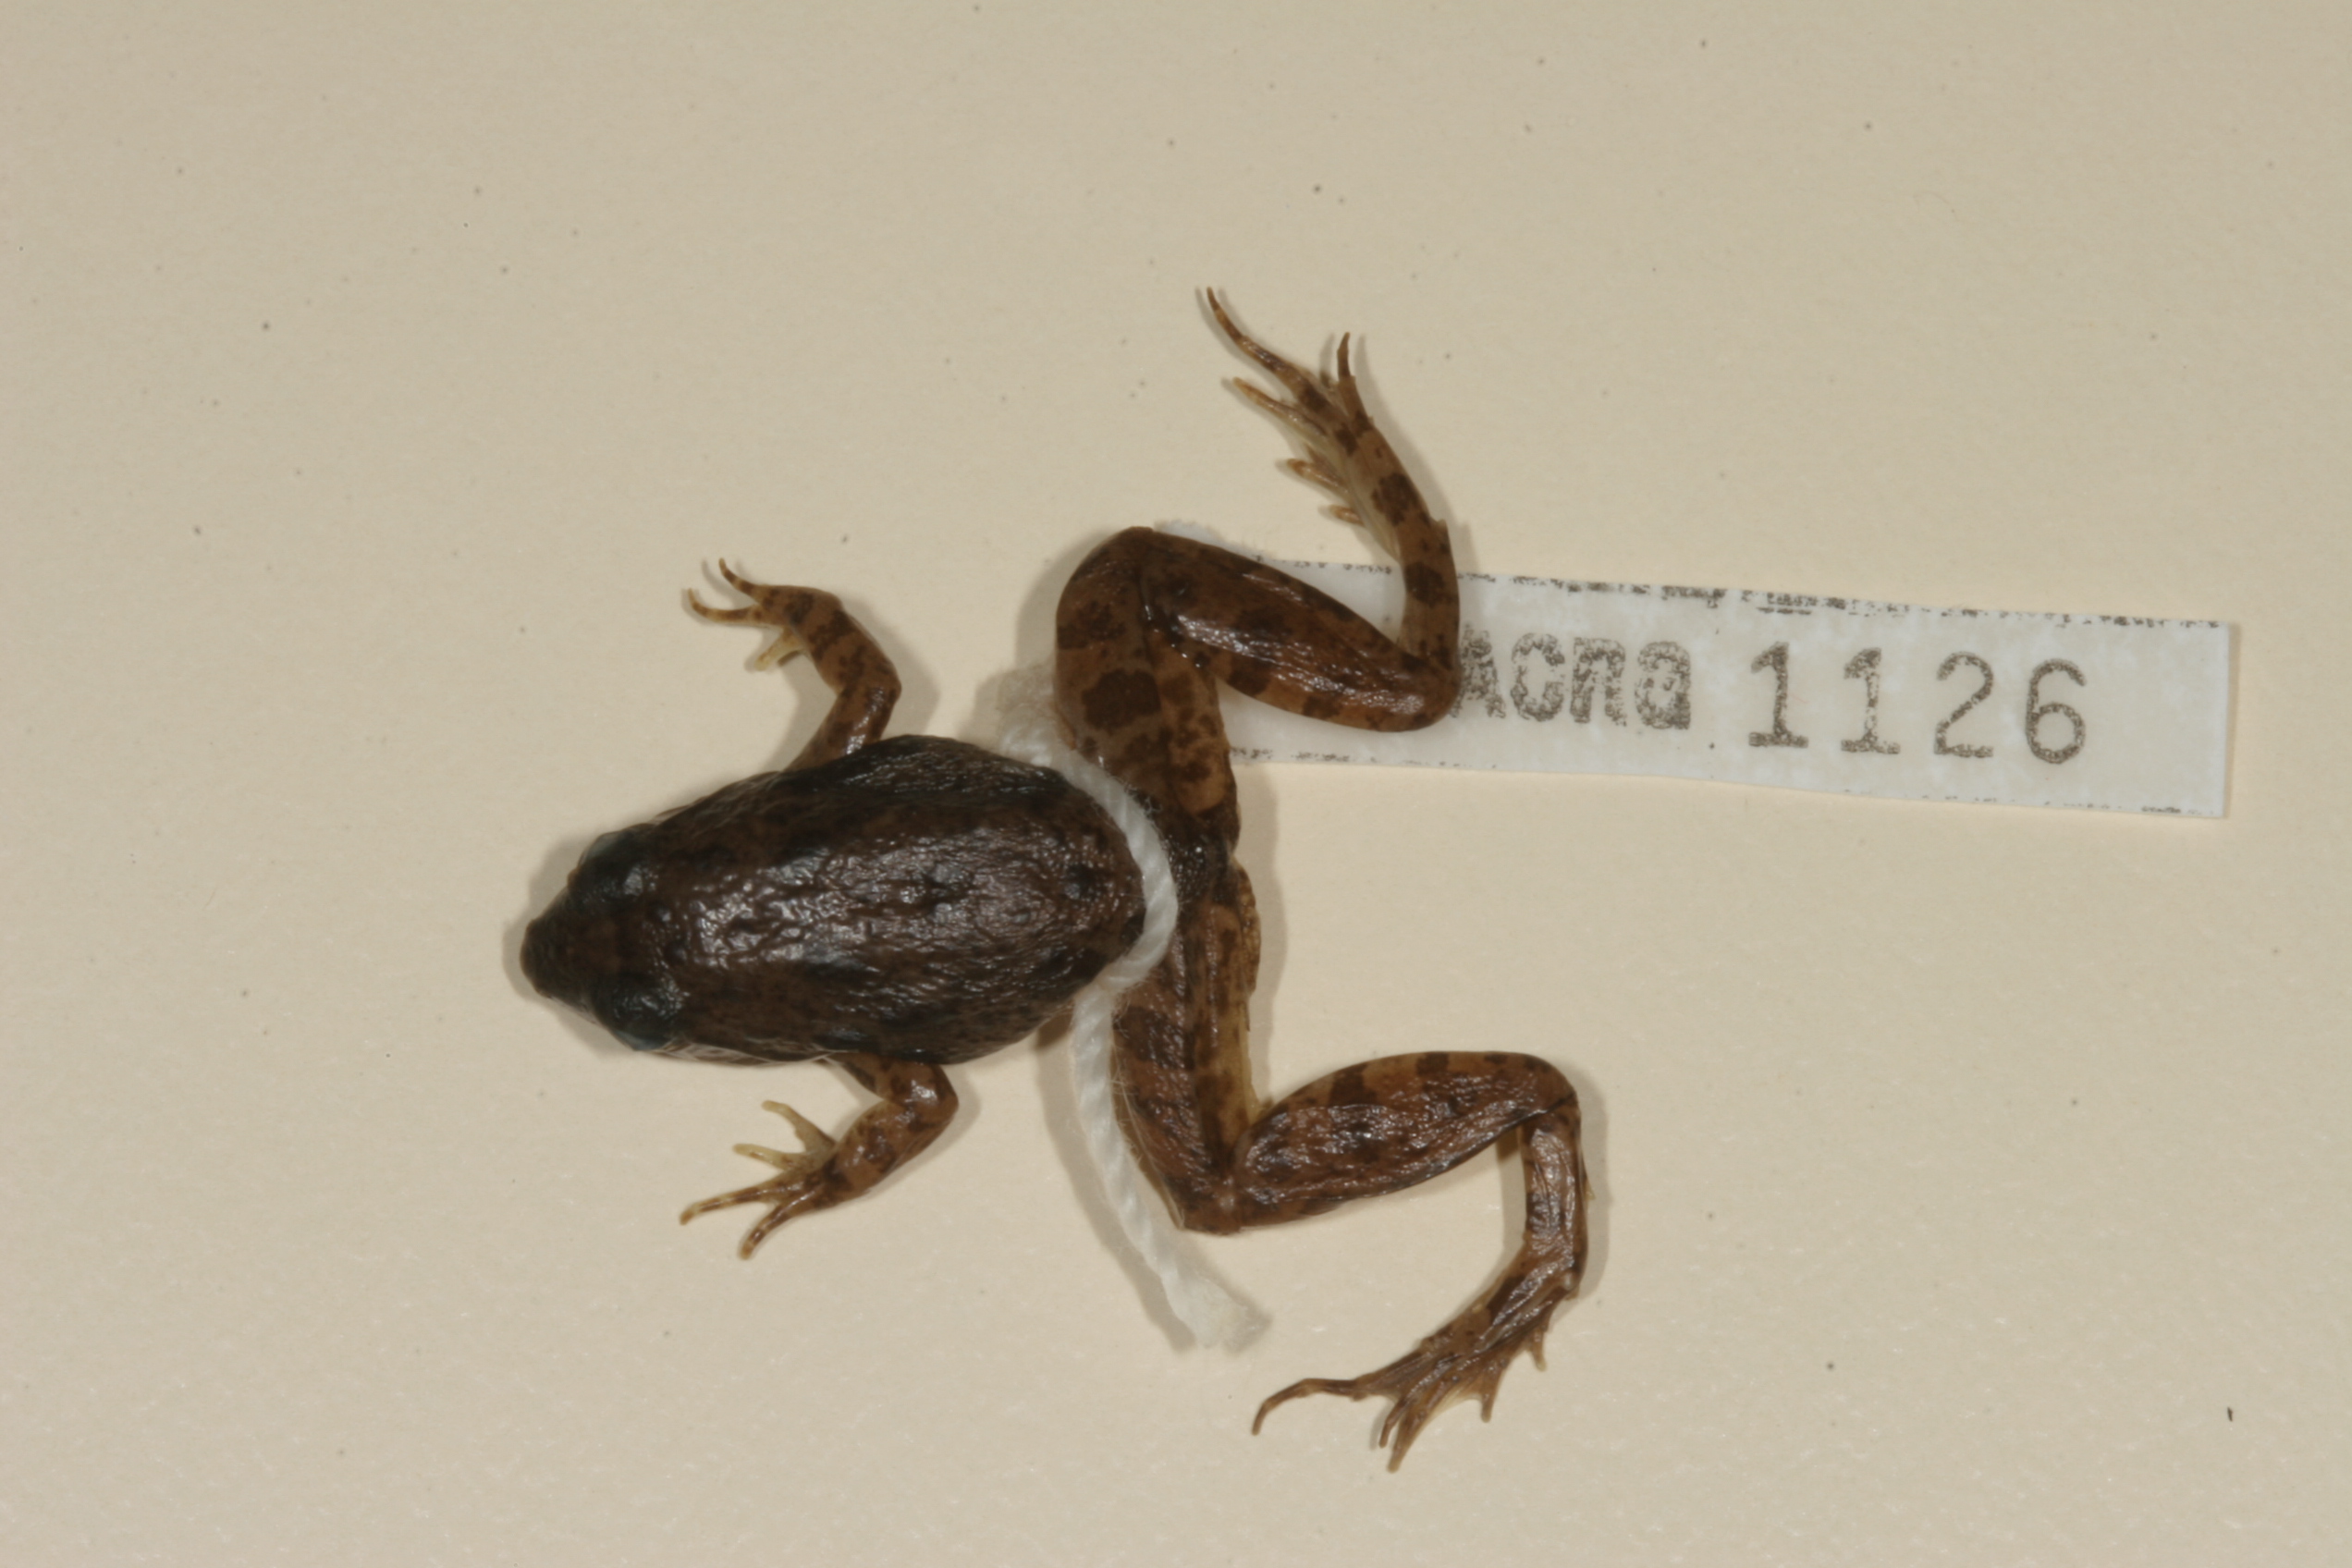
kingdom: Animalia
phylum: Chordata
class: Amphibia
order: Anura
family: Phrynobatrachidae
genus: Phrynobatrachus
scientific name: Phrynobatrachus natalensis
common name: Snoring puddle frog
